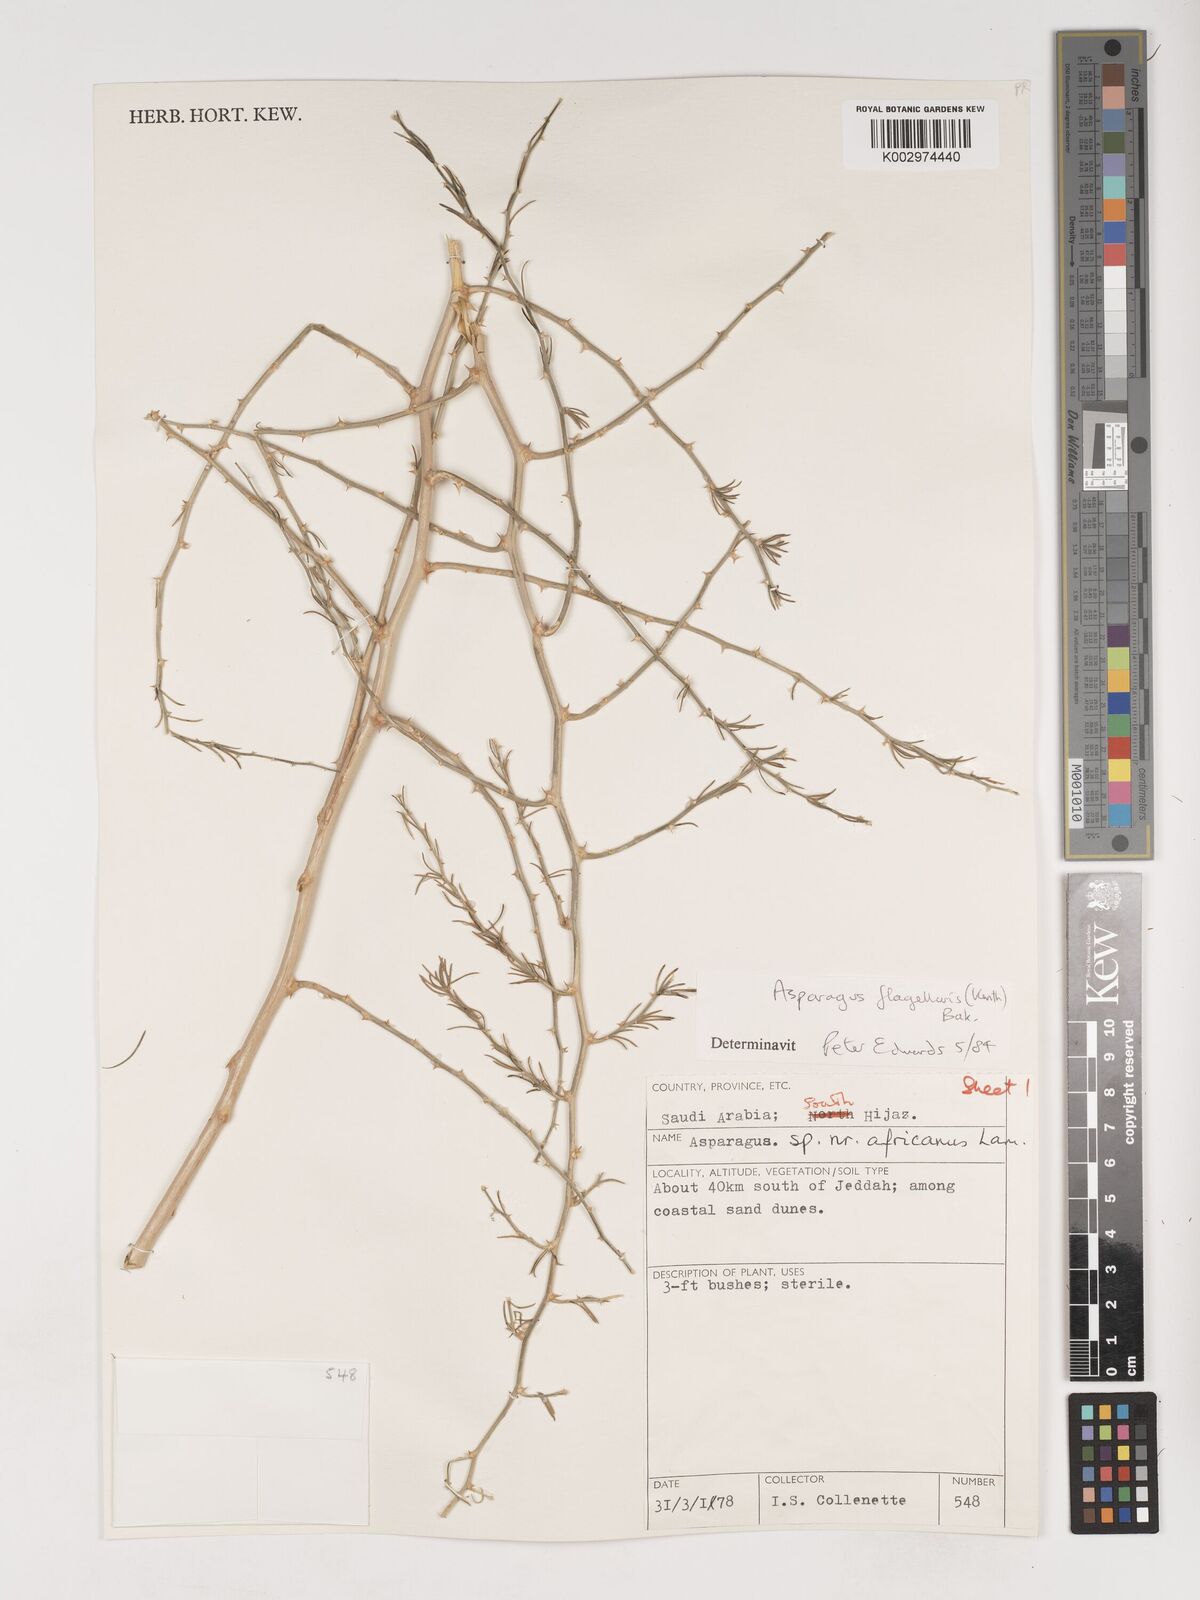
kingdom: Plantae
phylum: Tracheophyta
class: Liliopsida
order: Asparagales
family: Asparagaceae
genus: Asparagus
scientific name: Asparagus flagellaris
